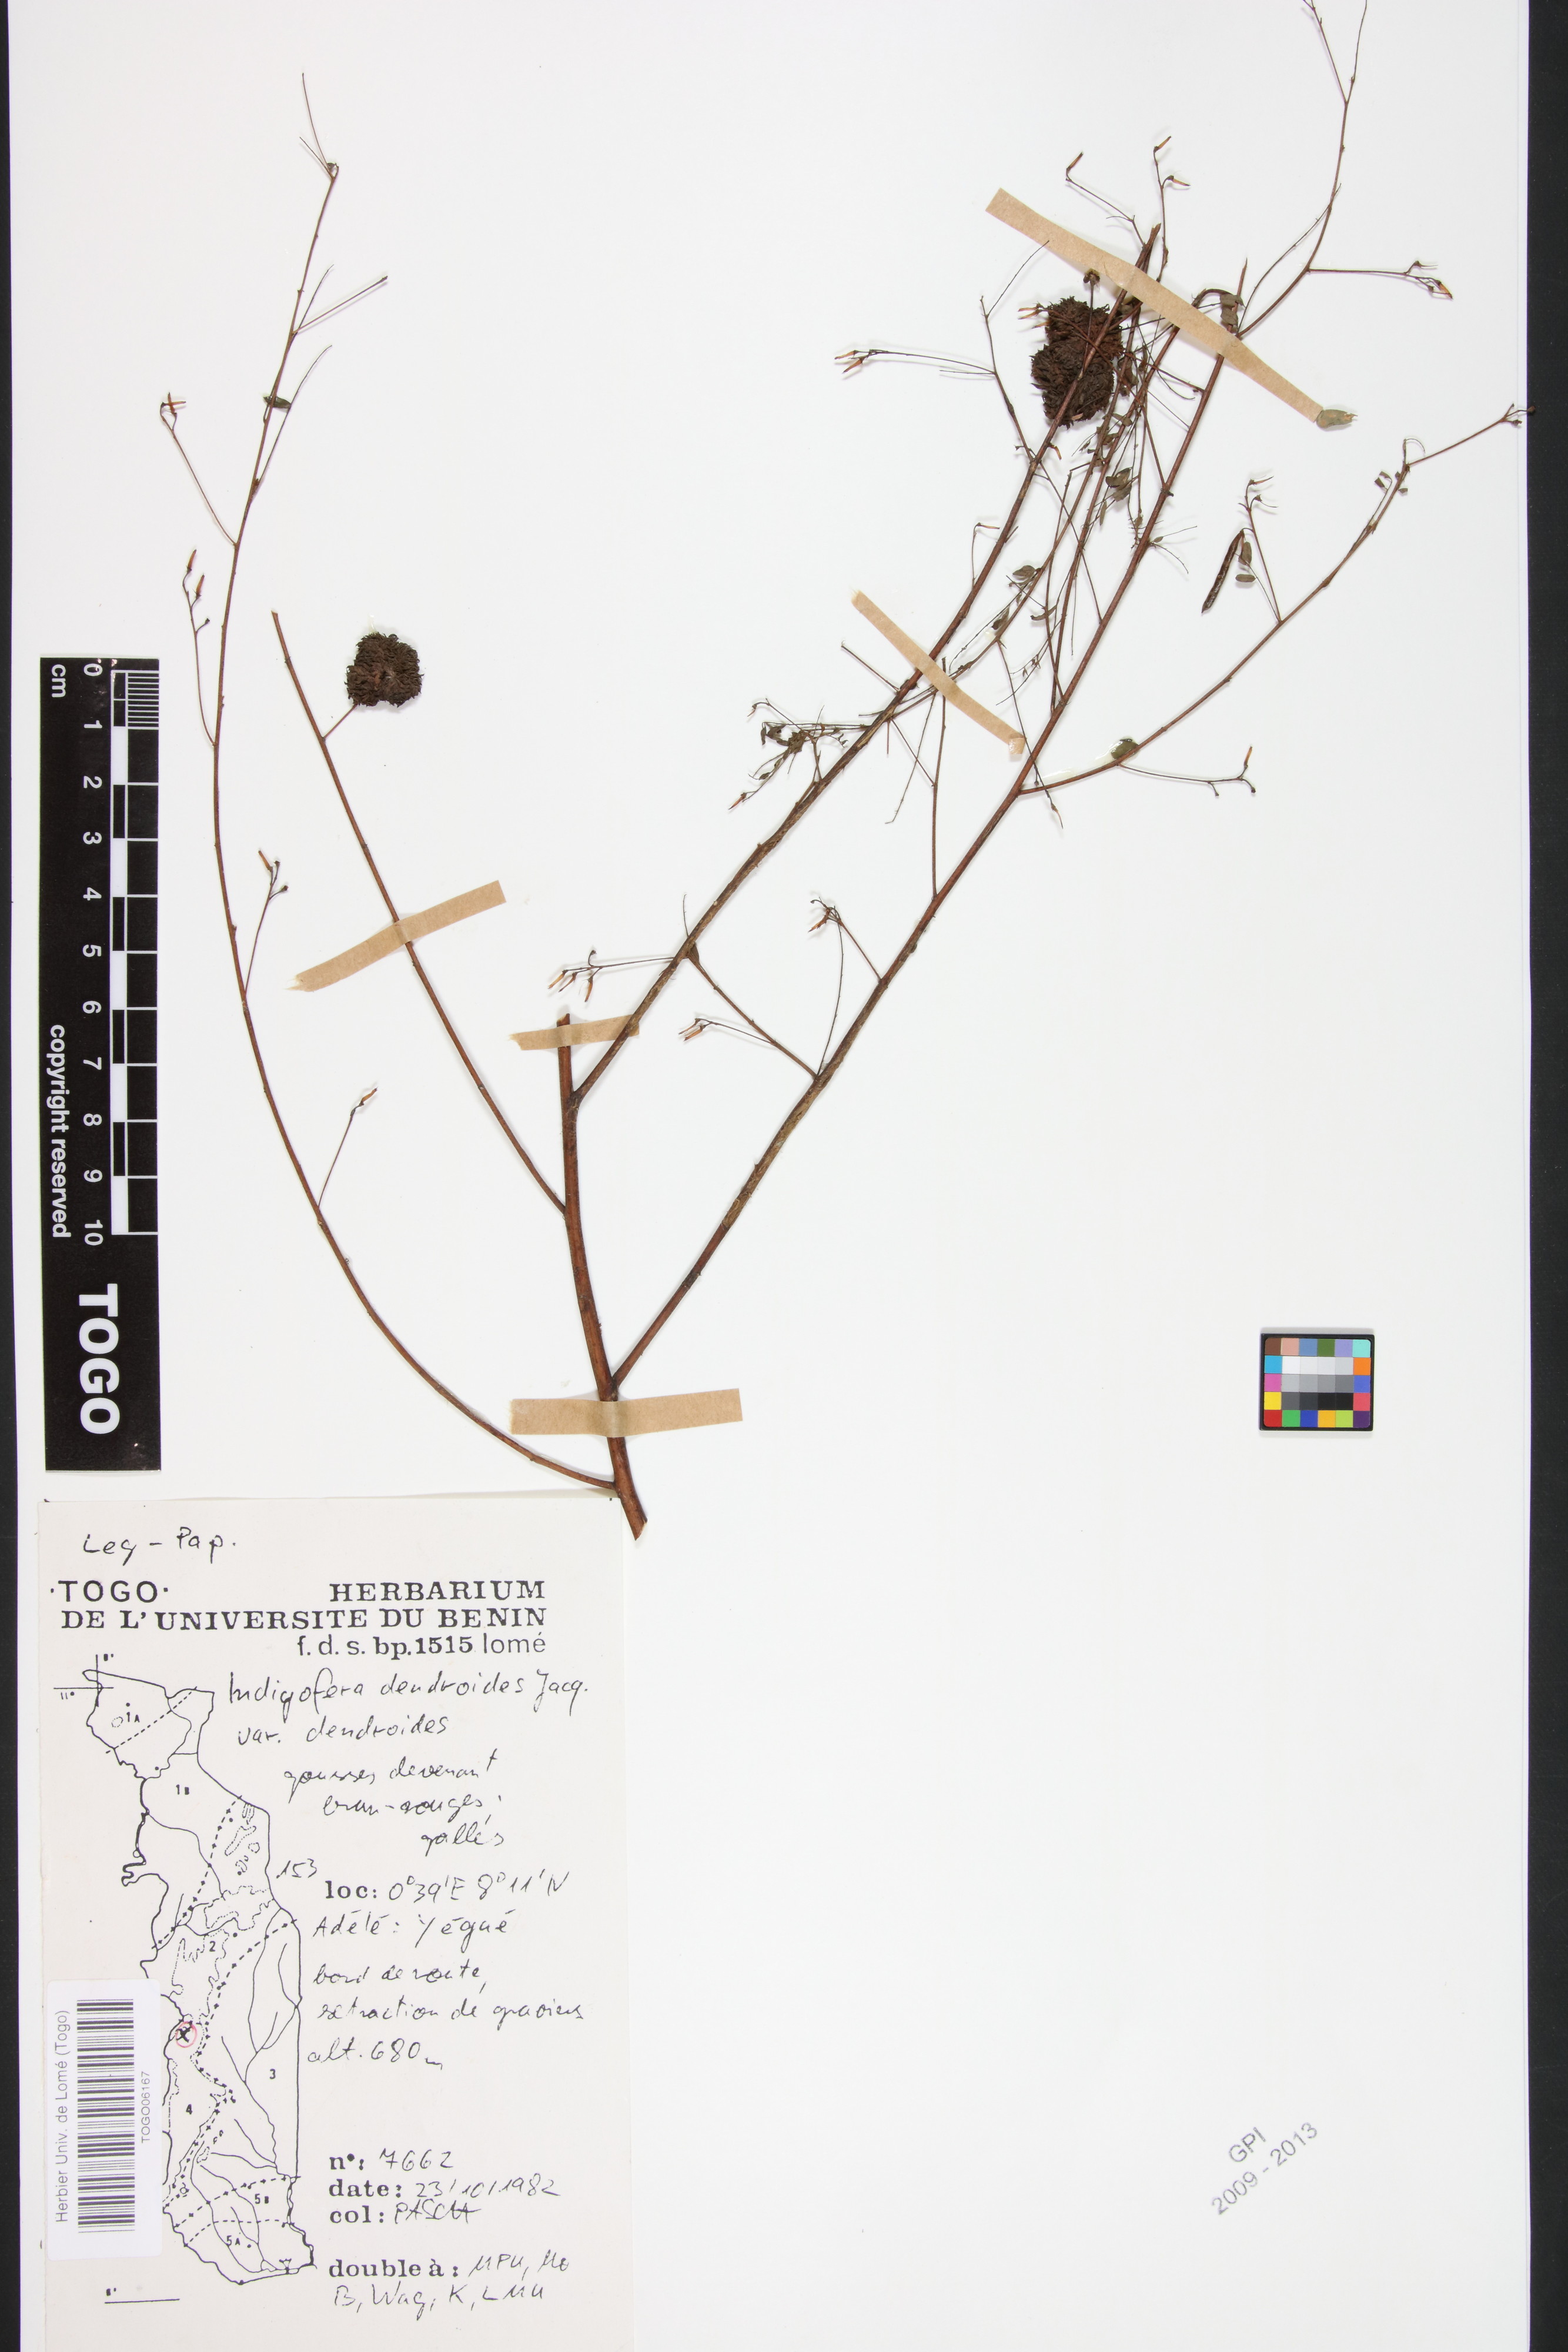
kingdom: Plantae
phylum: Tracheophyta
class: Magnoliopsida
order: Fabales
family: Fabaceae
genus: Indigofera
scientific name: Indigofera dendroides
